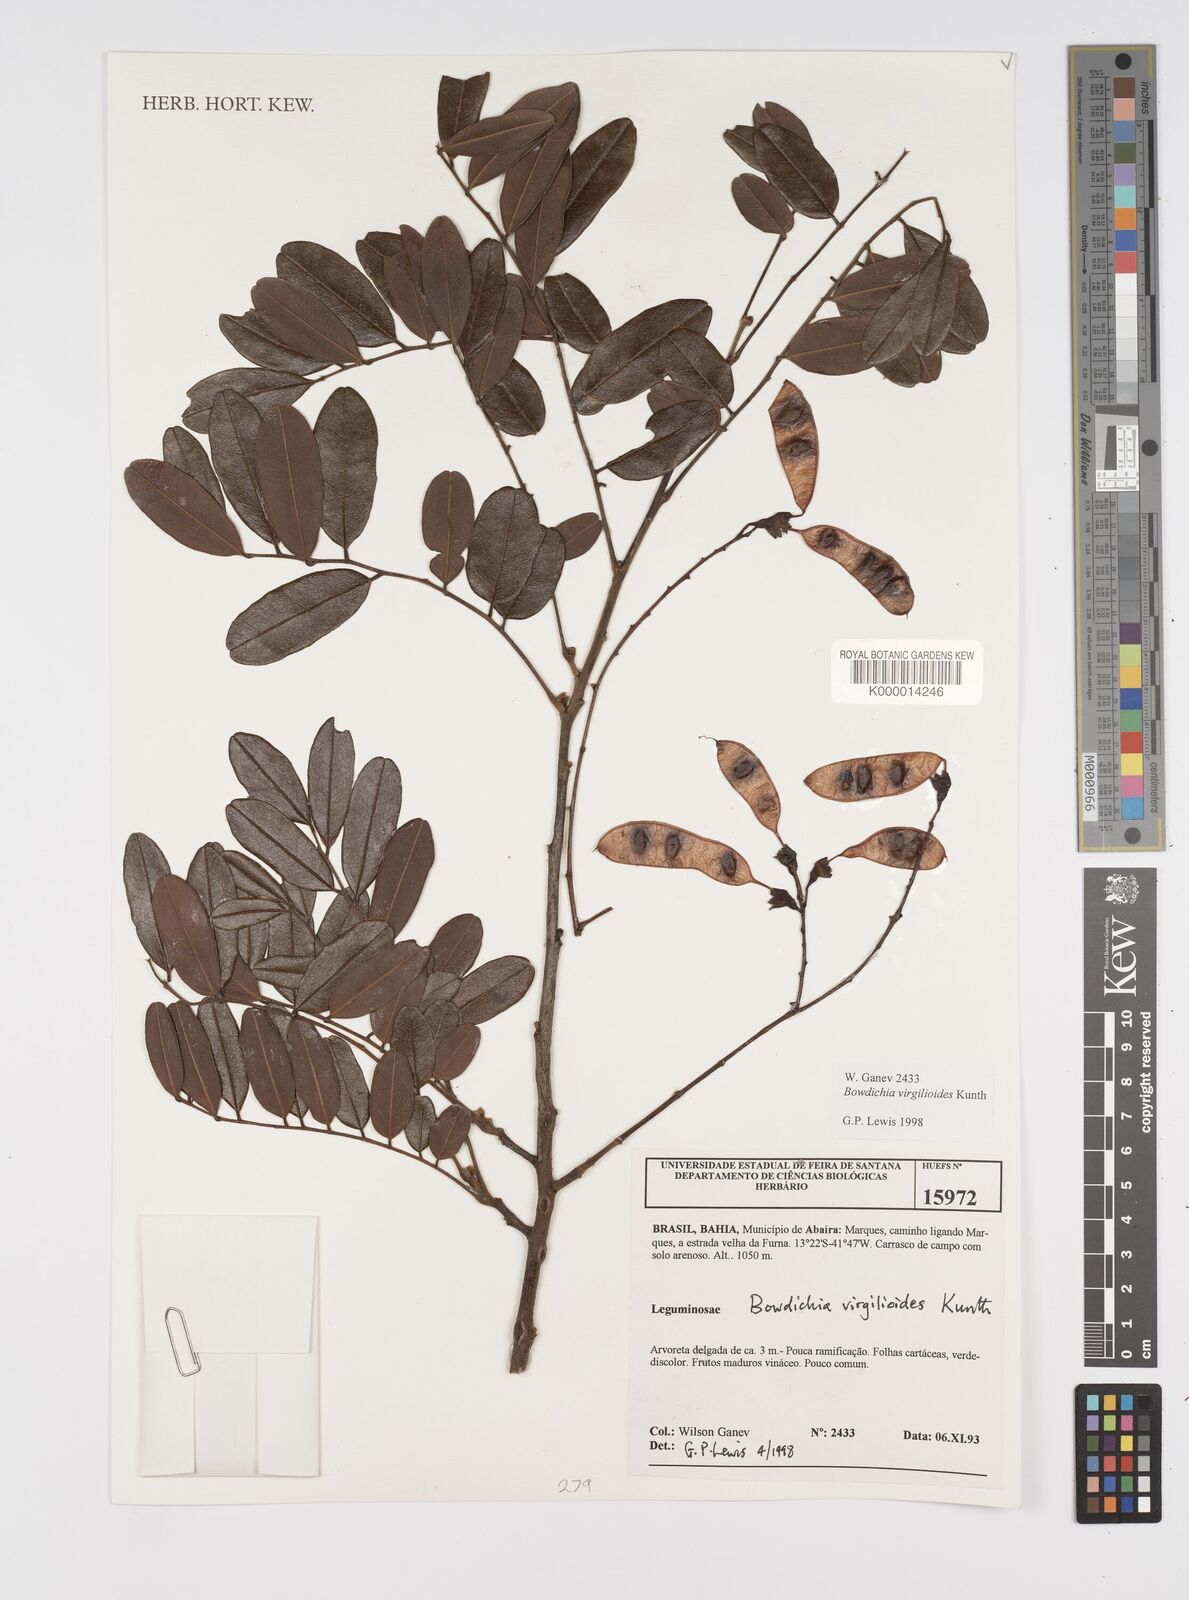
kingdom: Plantae
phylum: Tracheophyta
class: Magnoliopsida
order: Fabales
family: Fabaceae
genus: Bowdichia
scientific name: Bowdichia virgilioides
